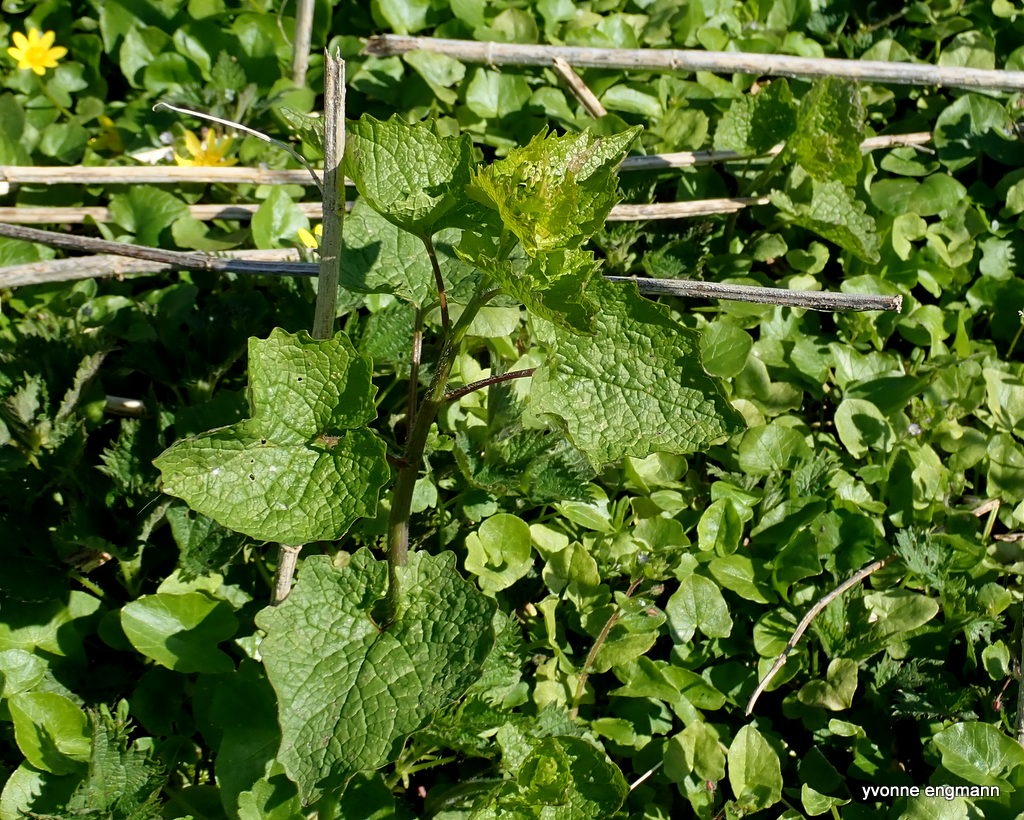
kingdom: Plantae
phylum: Tracheophyta
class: Magnoliopsida
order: Brassicales
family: Brassicaceae
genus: Alliaria
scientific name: Alliaria petiolata
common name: Løgkarse
